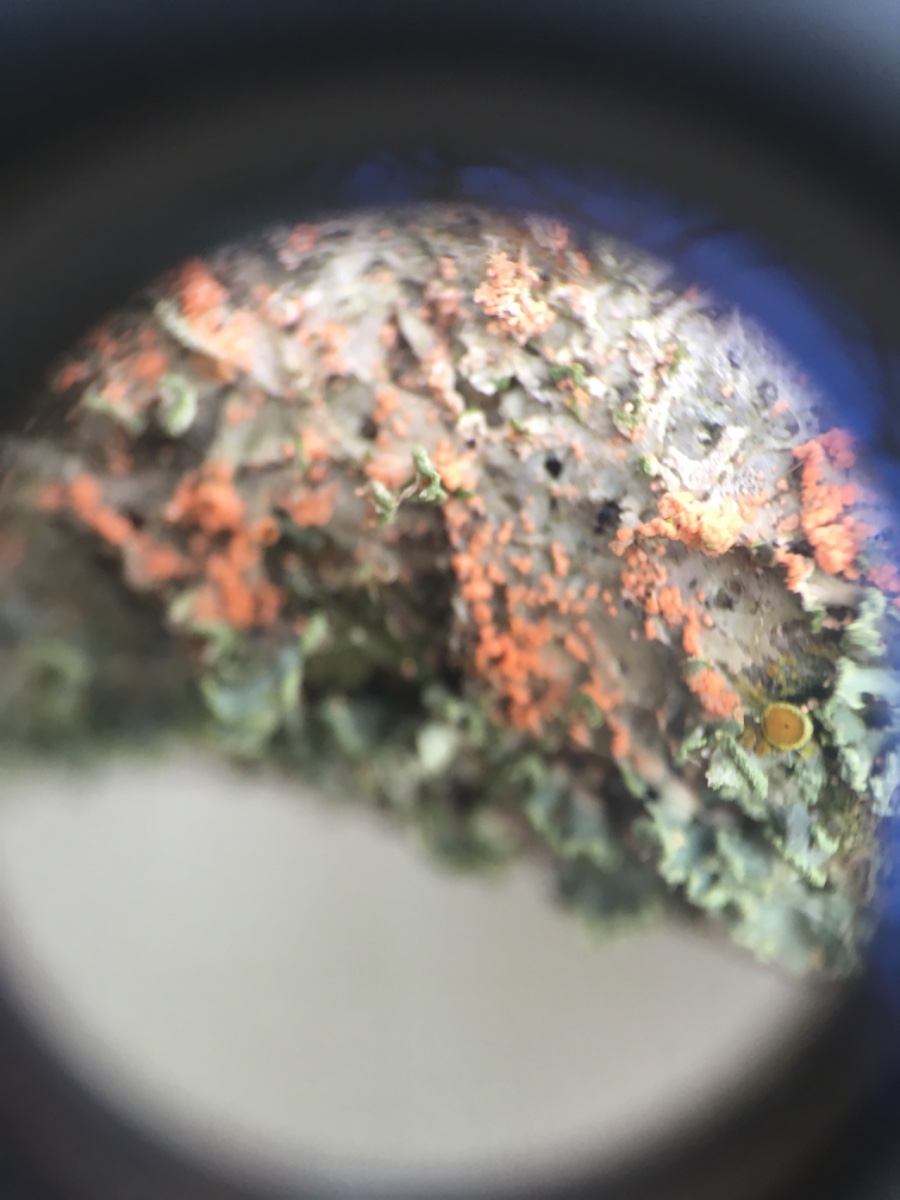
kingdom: Fungi
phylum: Basidiomycota
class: Agaricomycetes
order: Corticiales
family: Corticiaceae
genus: Erythricium
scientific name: Erythricium aurantiacum
